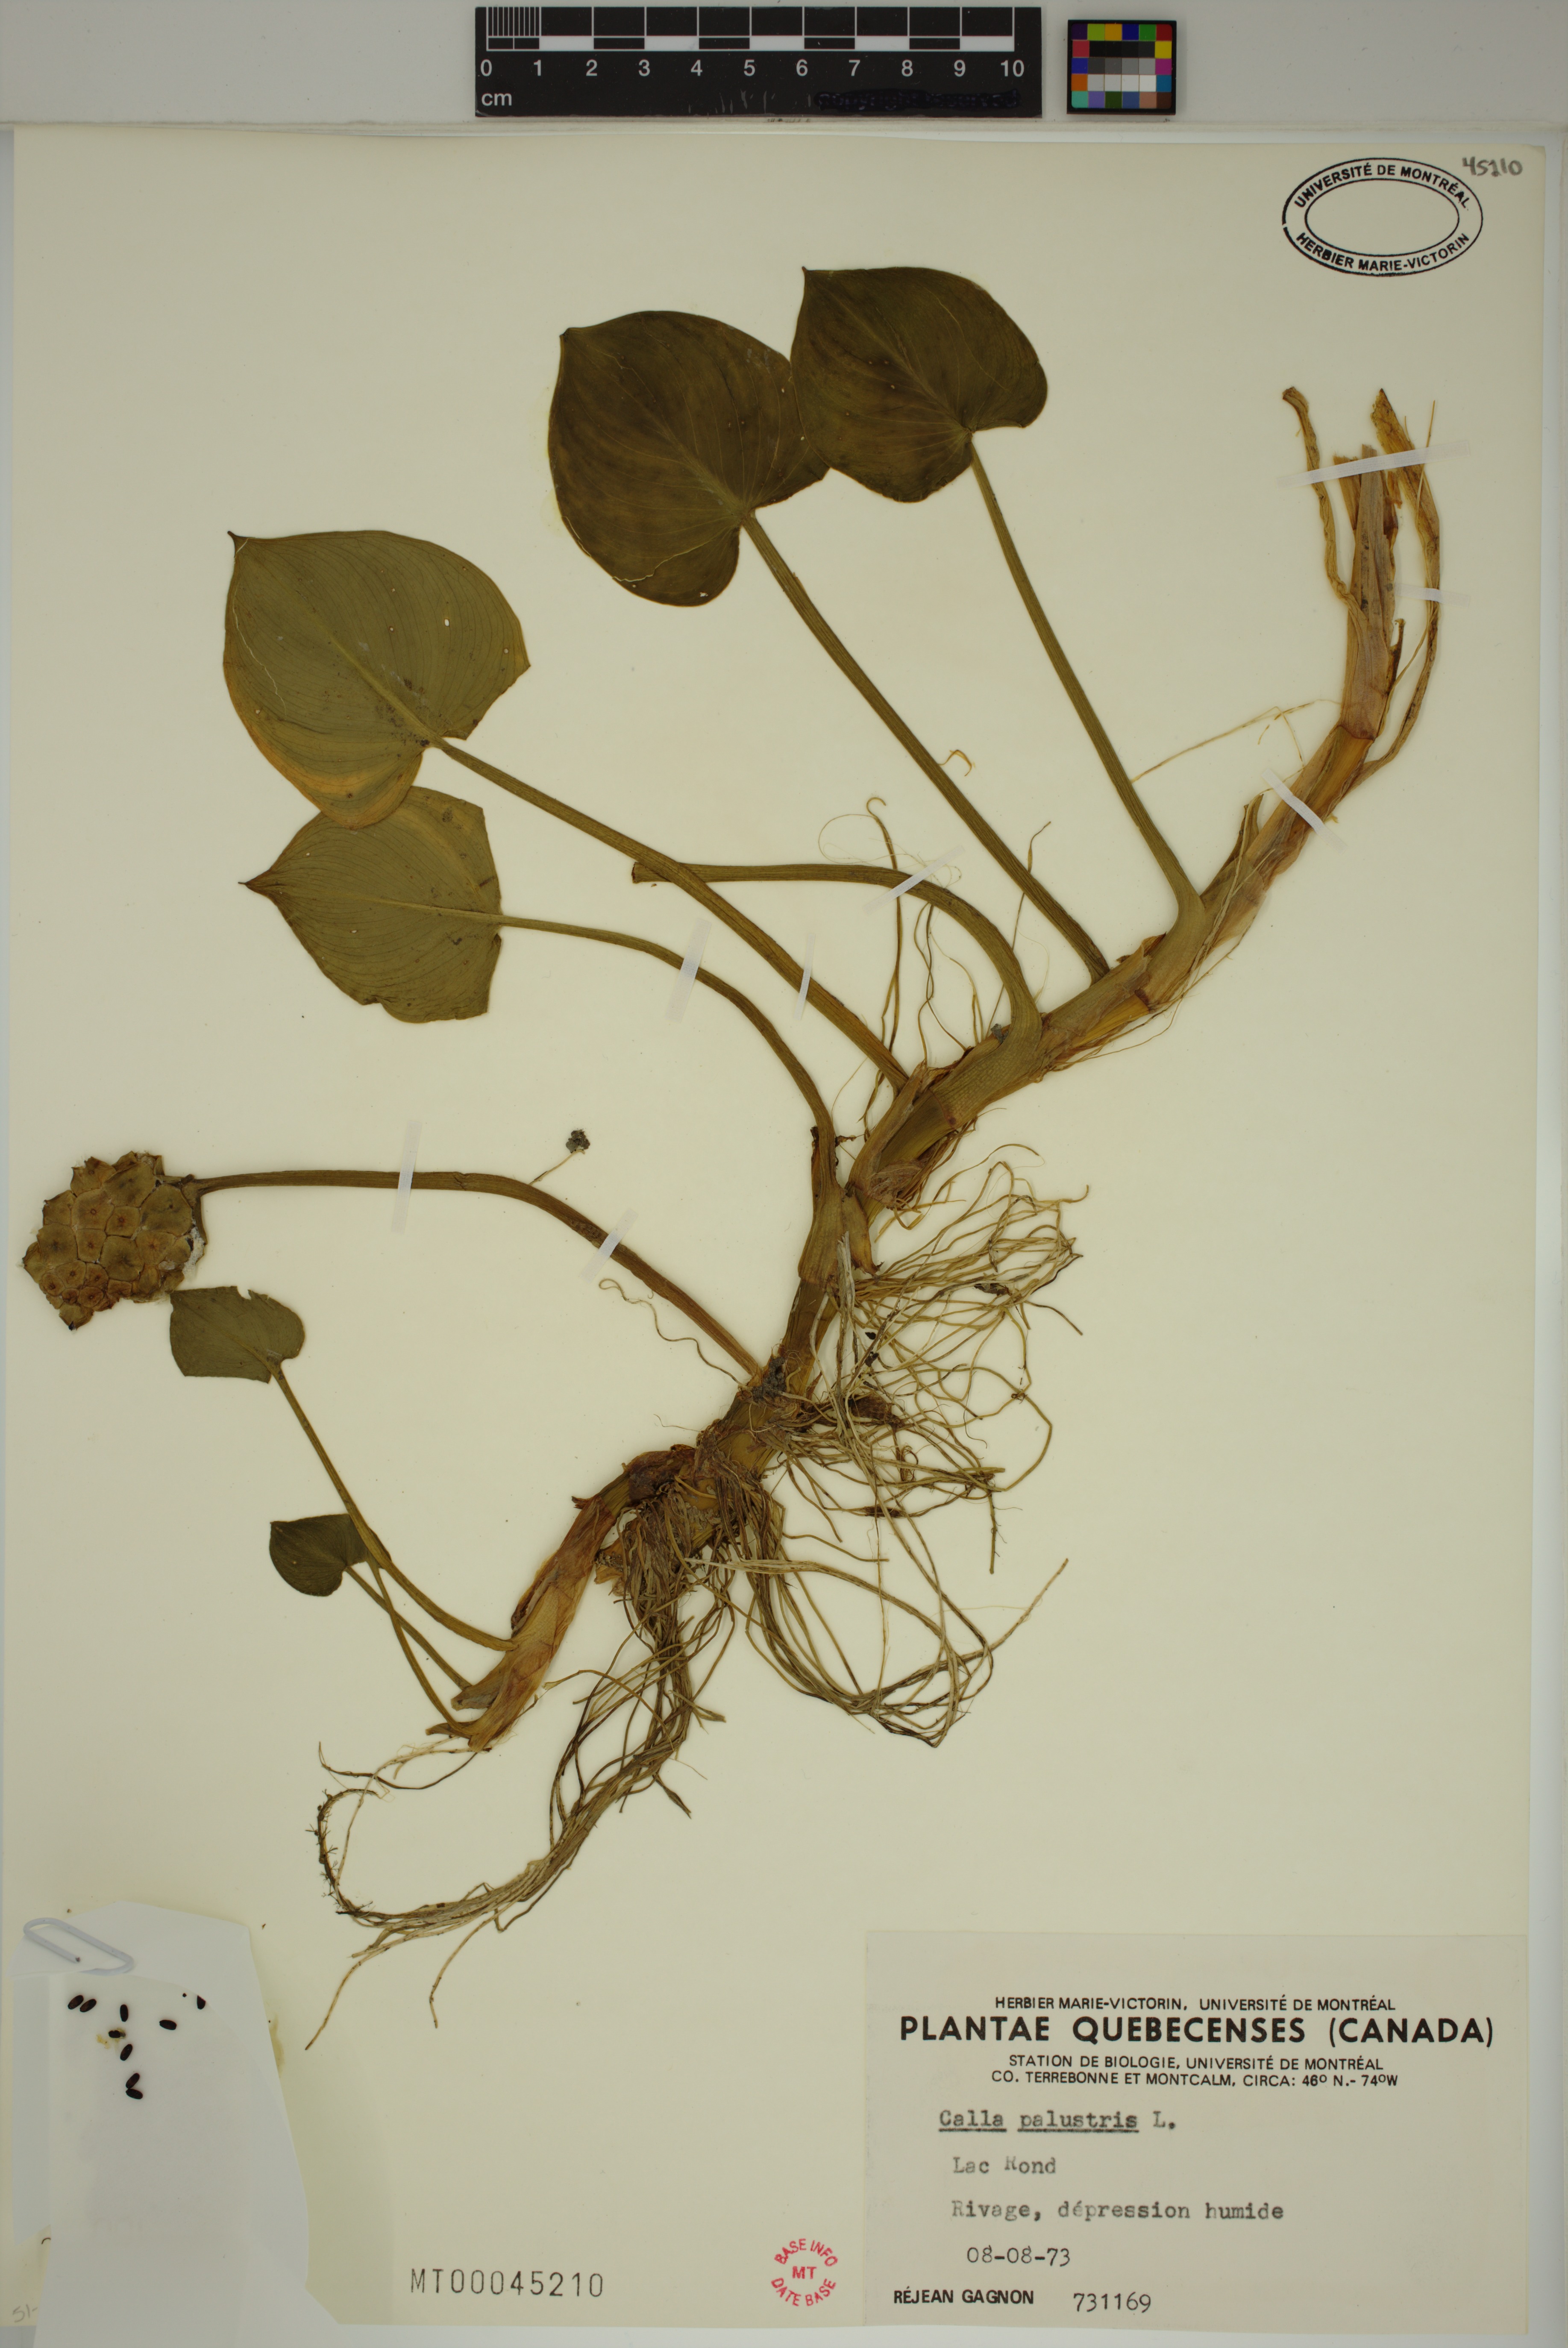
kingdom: Plantae
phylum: Tracheophyta
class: Liliopsida
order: Alismatales
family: Araceae
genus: Calla
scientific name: Calla palustris
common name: Bog arum
